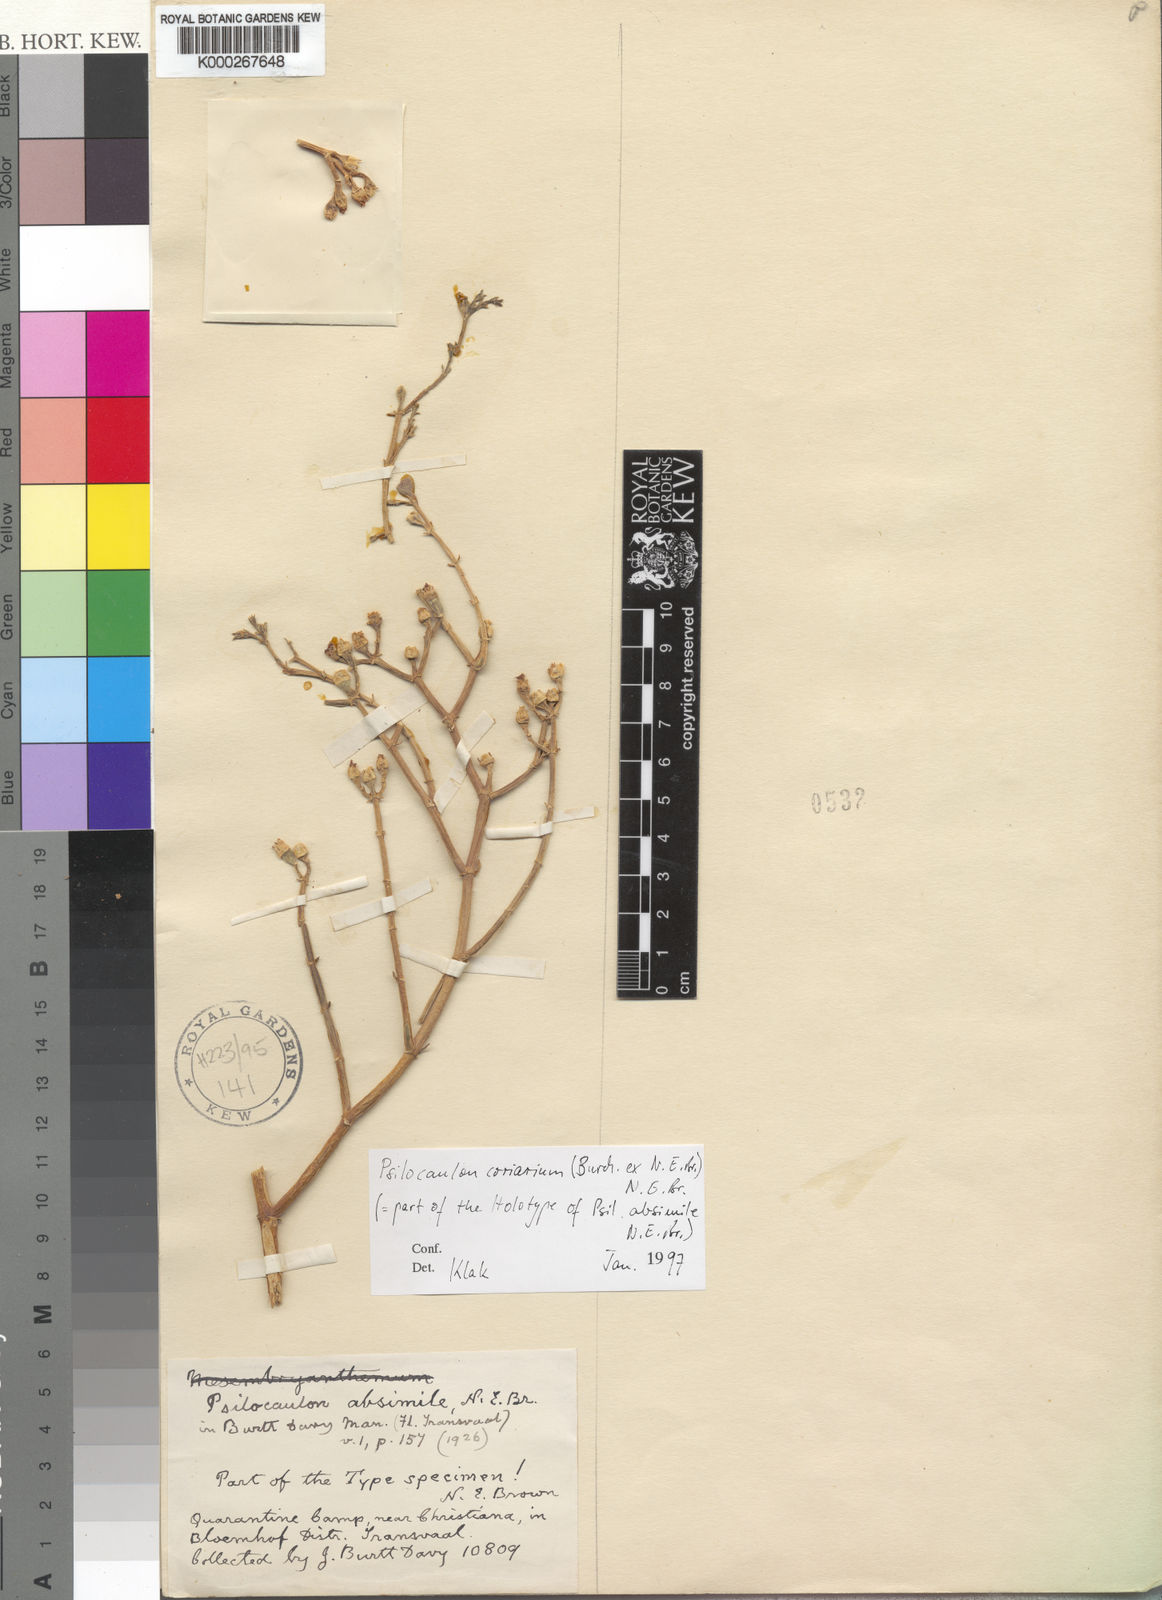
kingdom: Plantae
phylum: Tracheophyta
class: Magnoliopsida
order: Caryophyllales
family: Aizoaceae
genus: Mesembryanthemum
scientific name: Mesembryanthemum coriarium
